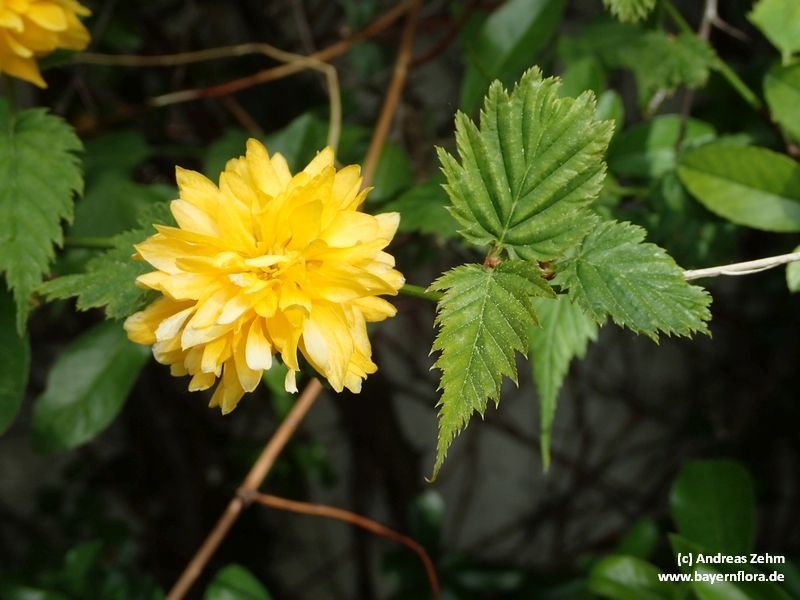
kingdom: Plantae
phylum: Tracheophyta
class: Magnoliopsida
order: Rosales
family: Rosaceae
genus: Kerria
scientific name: Kerria japonica
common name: Japanese kerria
